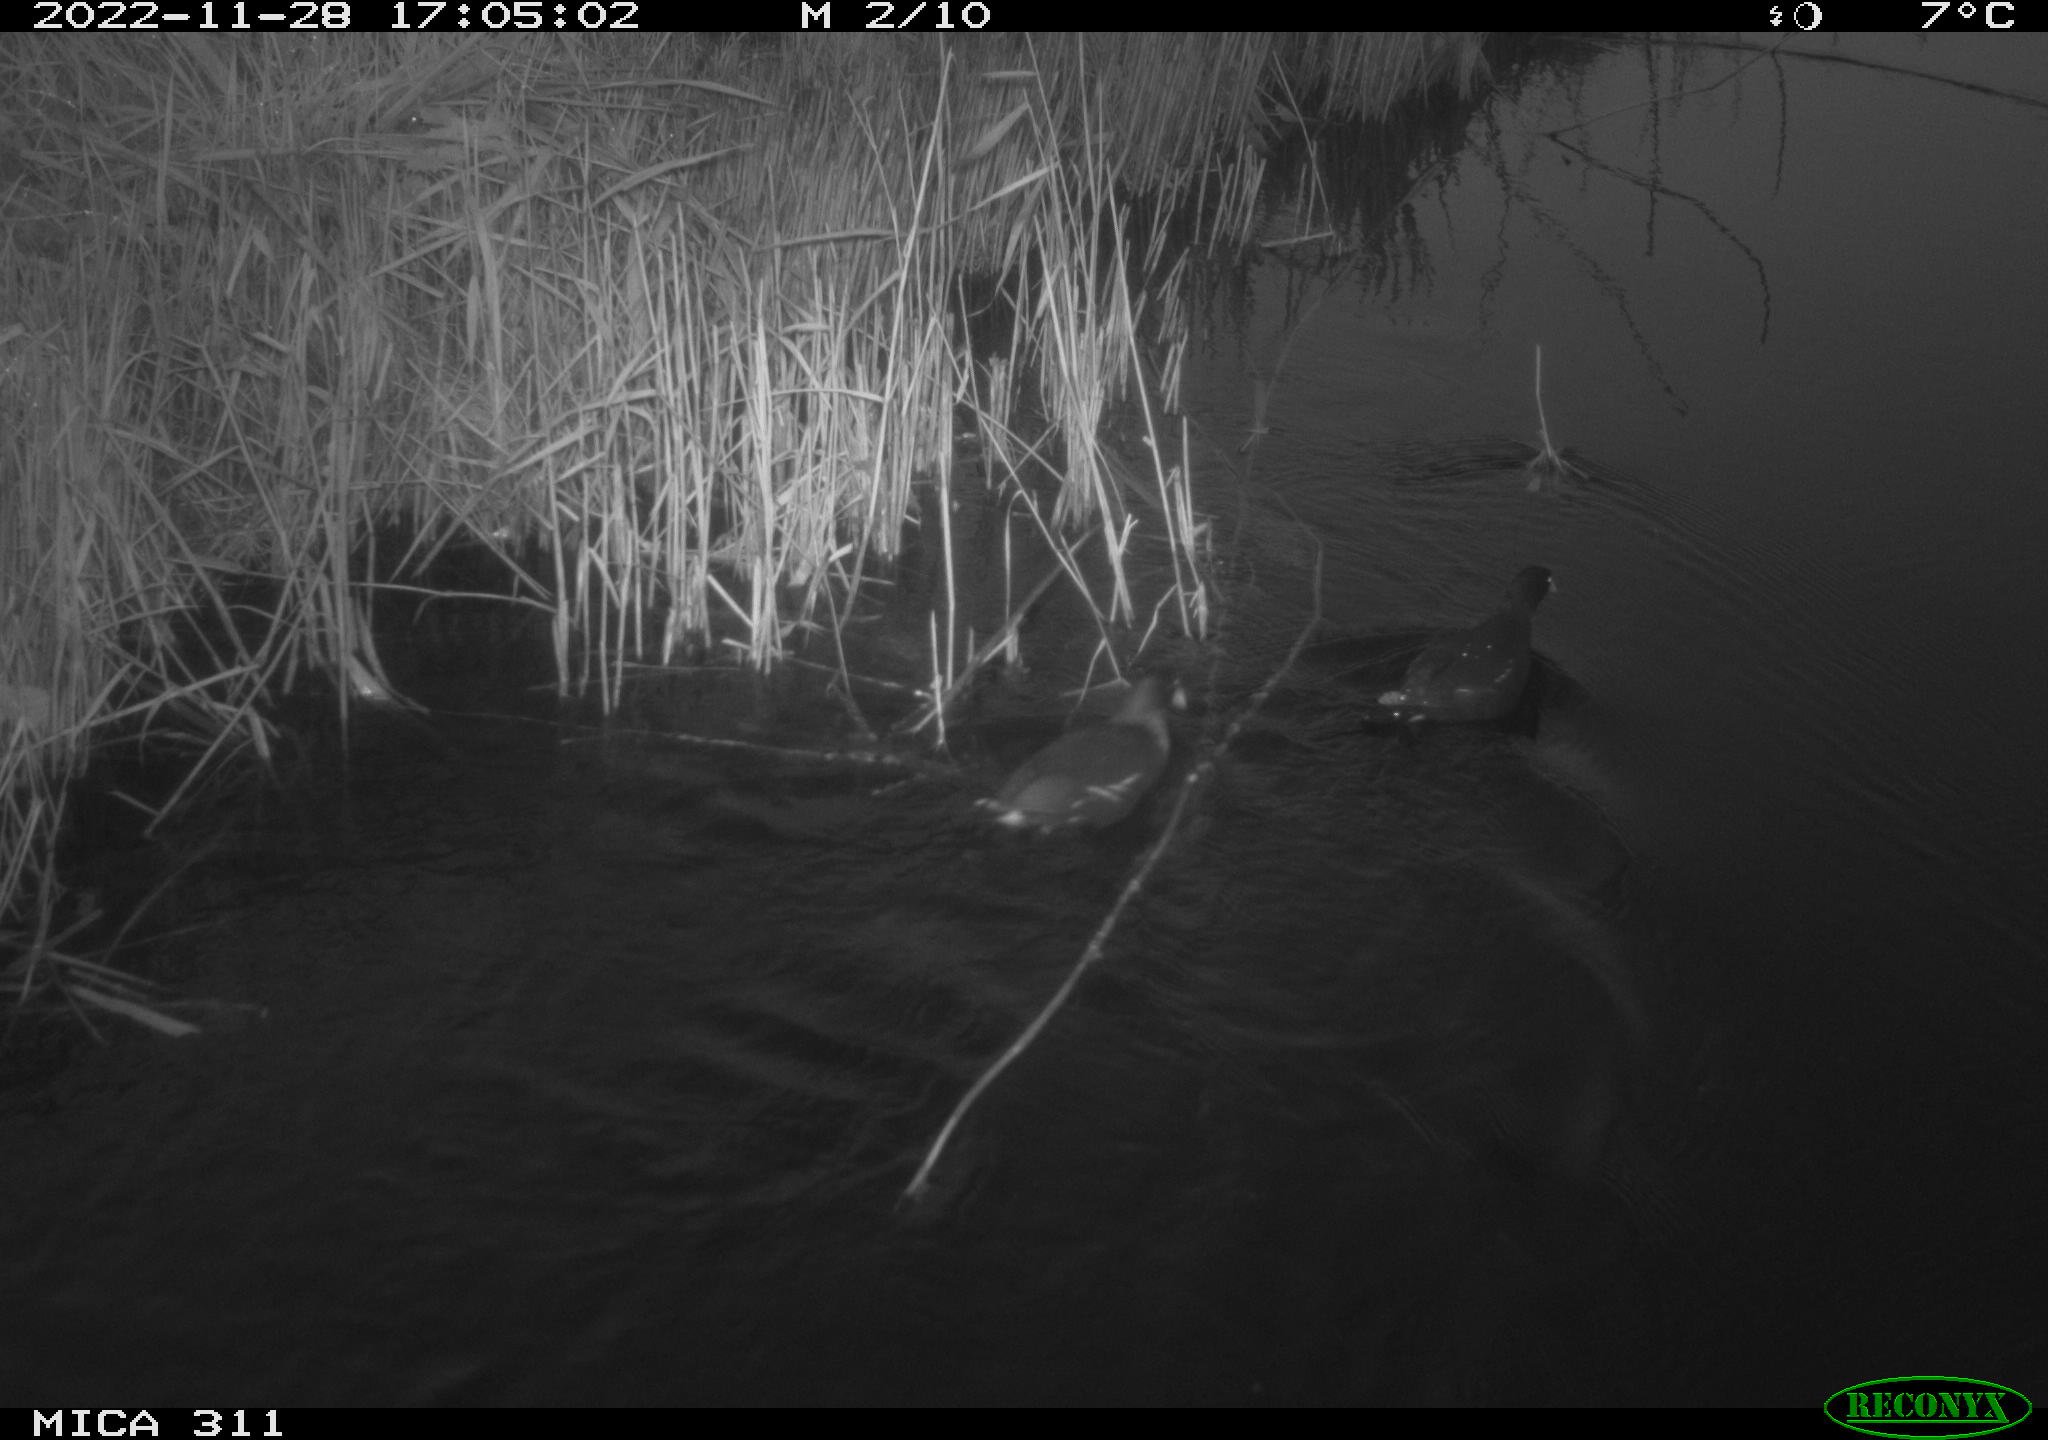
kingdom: Animalia
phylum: Chordata
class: Aves
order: Gruiformes
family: Rallidae
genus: Gallinula
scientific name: Gallinula chloropus
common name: Common moorhen
